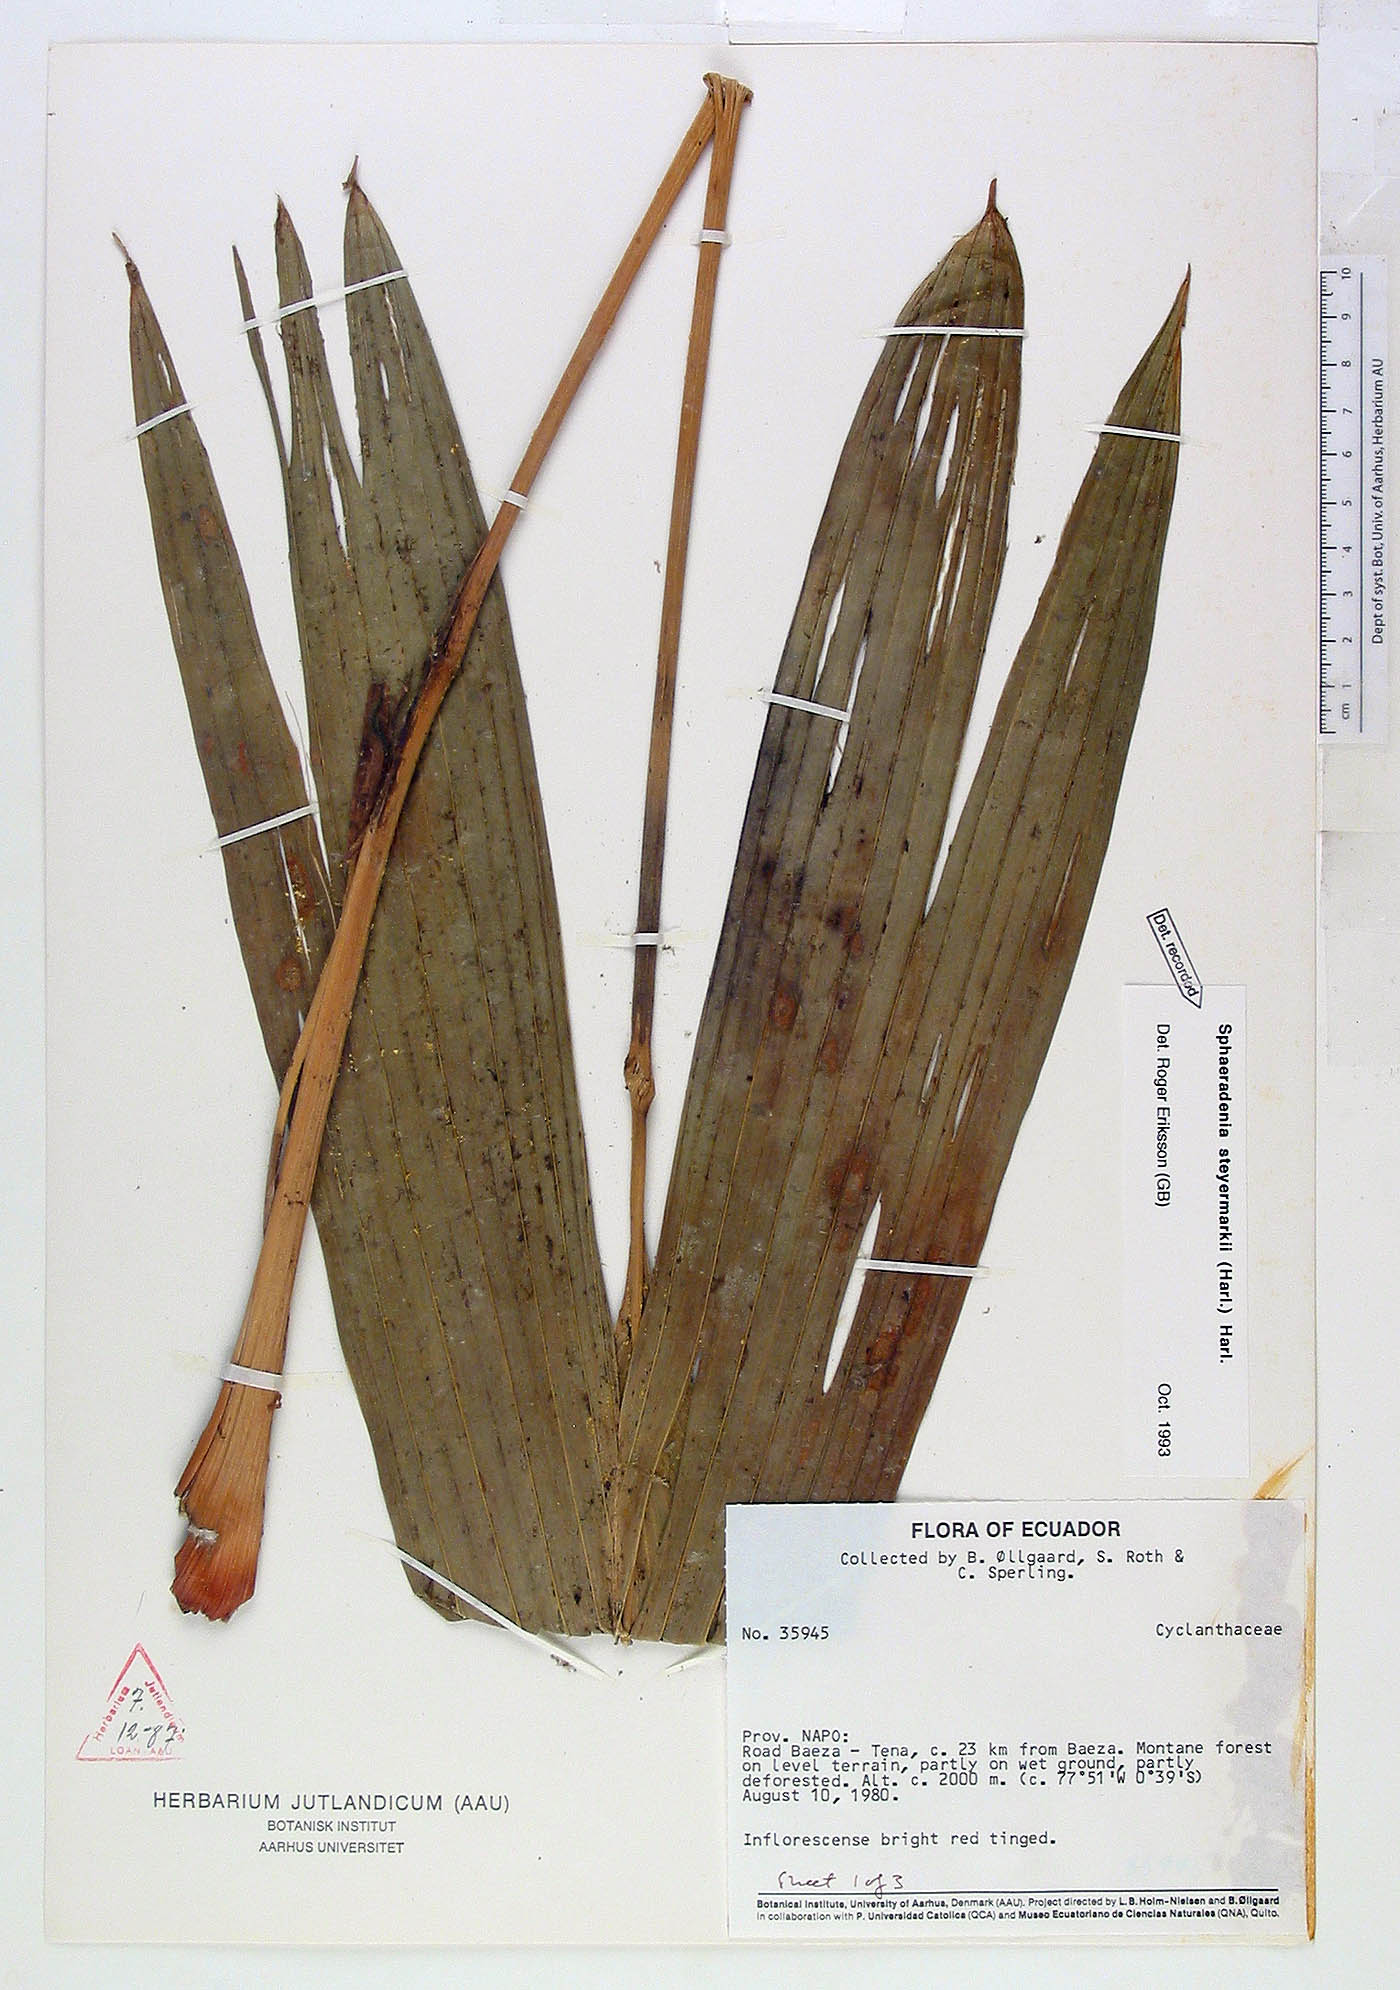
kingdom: Plantae
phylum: Tracheophyta
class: Liliopsida
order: Pandanales
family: Cyclanthaceae
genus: Sphaeradenia
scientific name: Sphaeradenia steyermarkii
